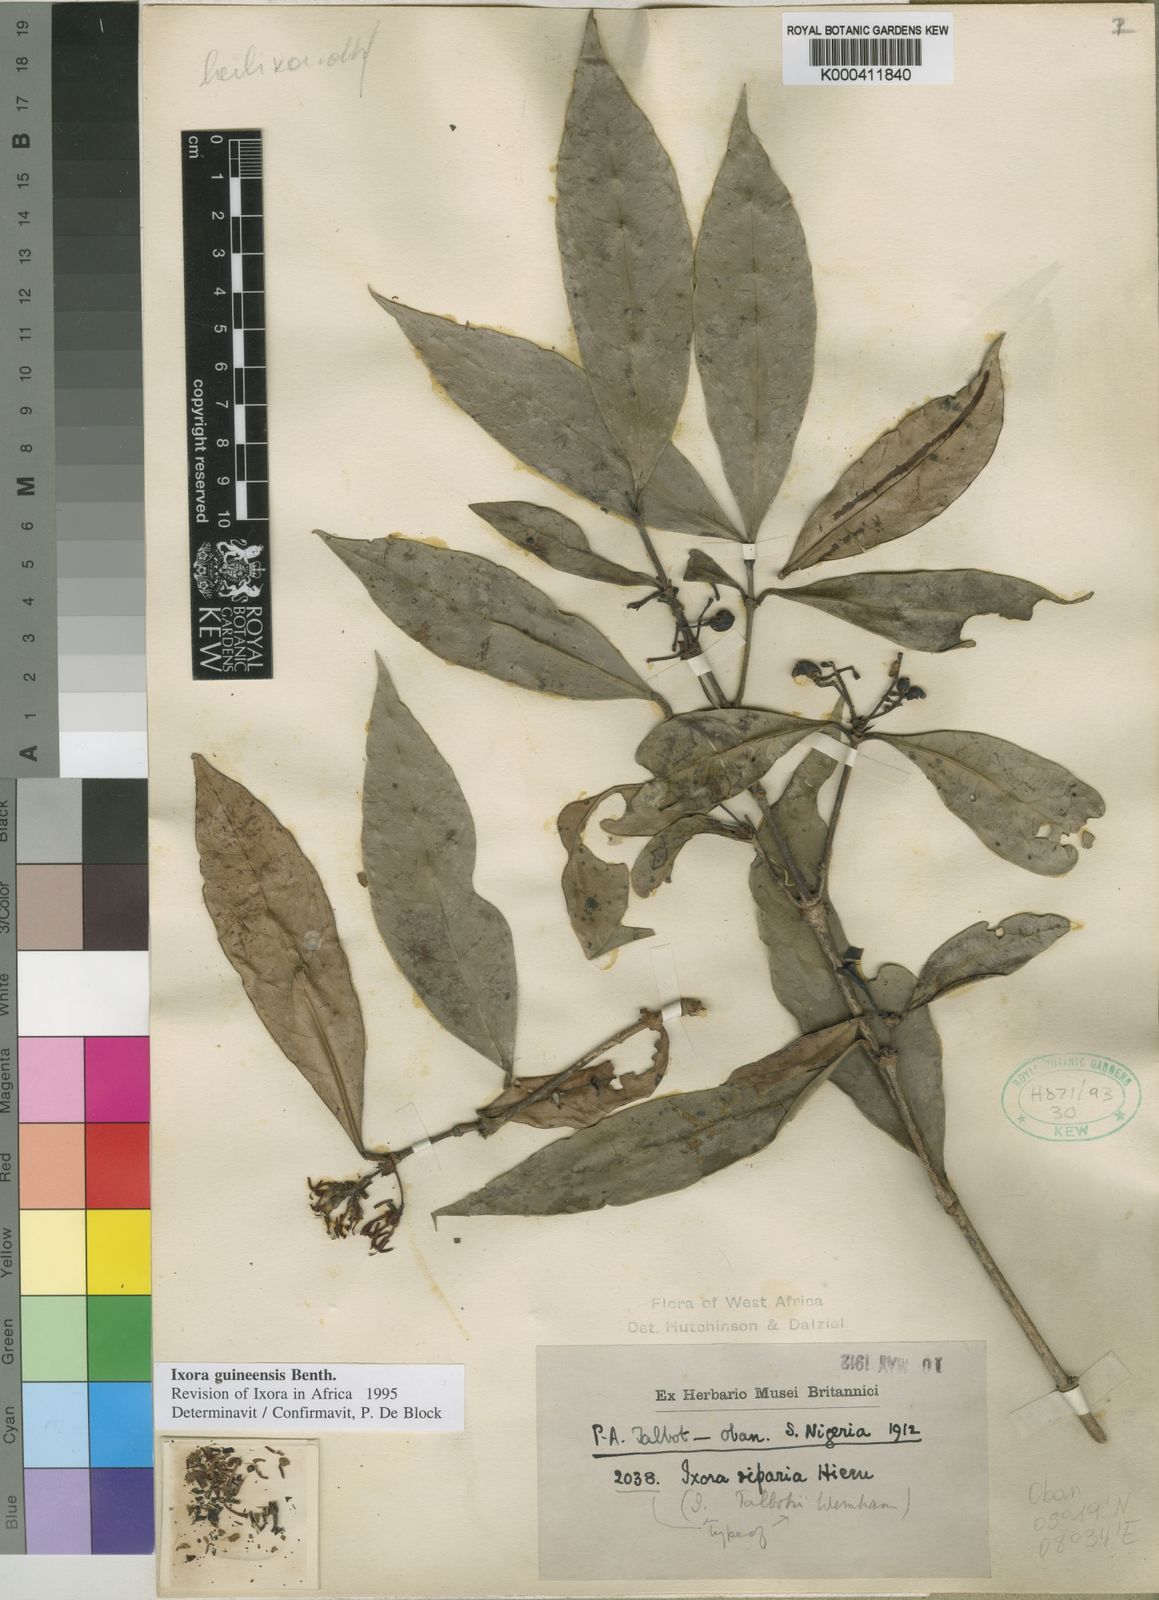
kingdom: Plantae
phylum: Tracheophyta
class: Magnoliopsida
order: Gentianales
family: Rubiaceae
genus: Ixora
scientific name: Ixora guineensis
